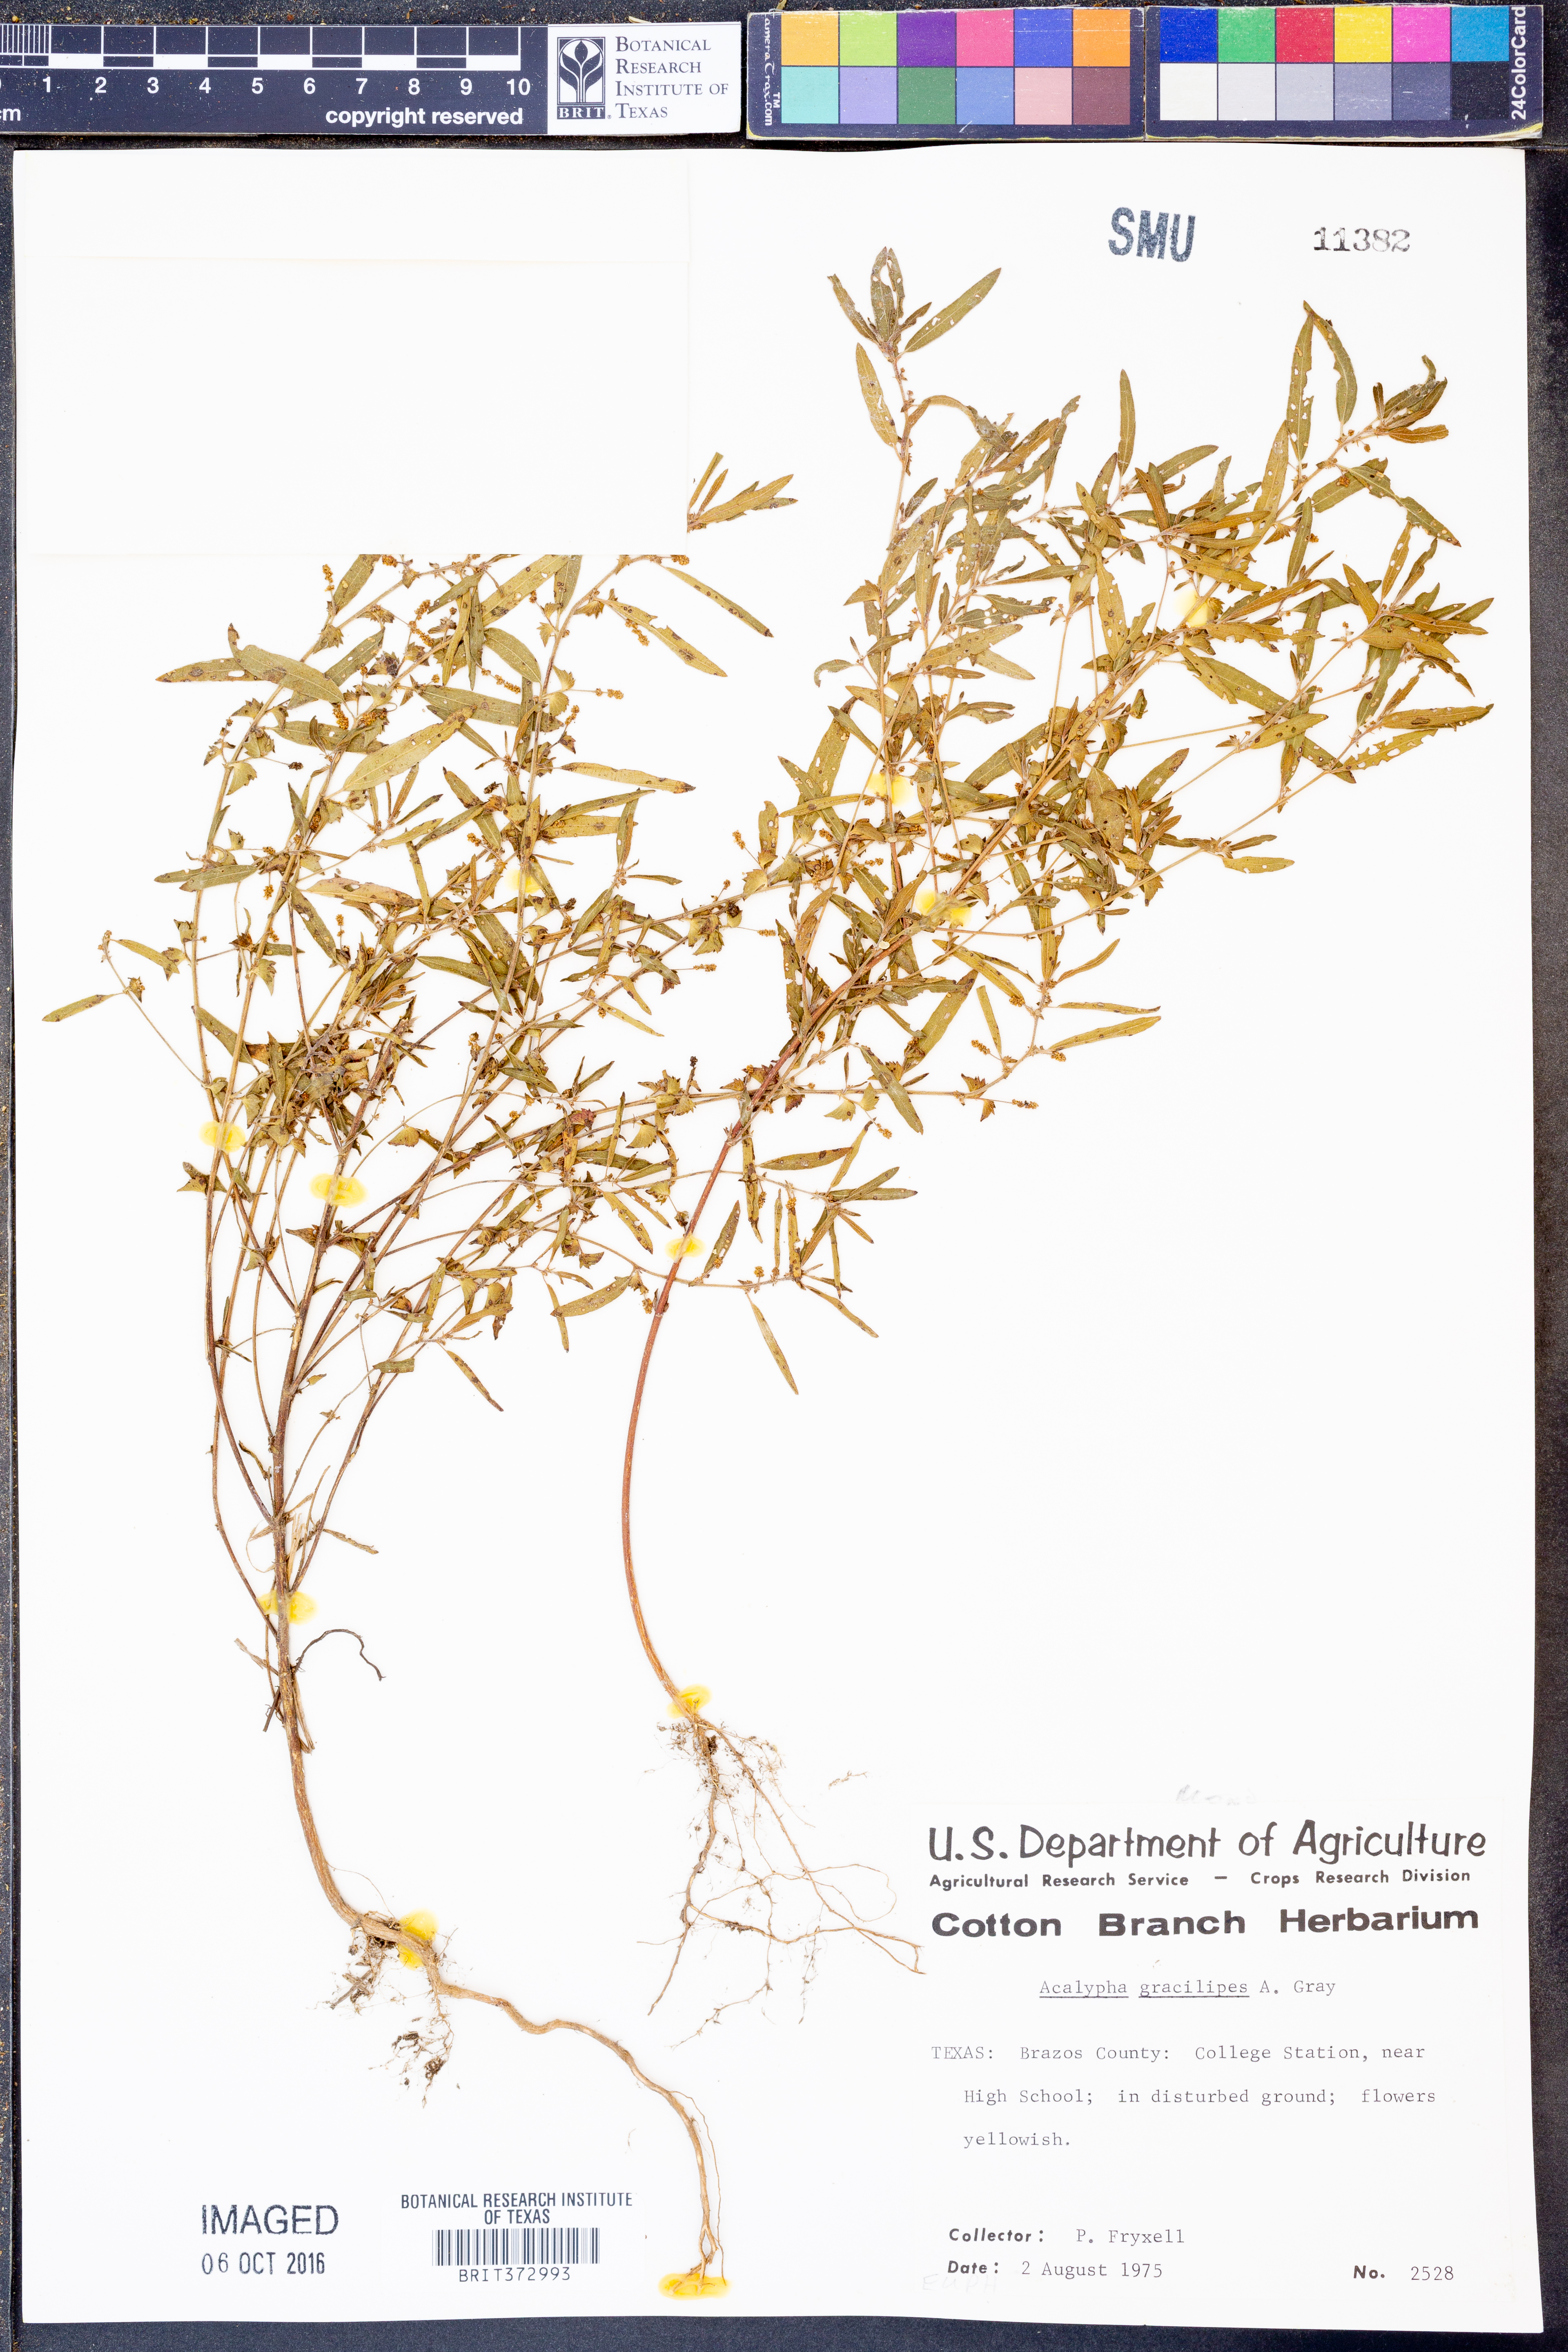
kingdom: Plantae
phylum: Tracheophyta
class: Magnoliopsida
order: Malpighiales
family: Euphorbiaceae
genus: Acalypha
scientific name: Acalypha gracilipes
